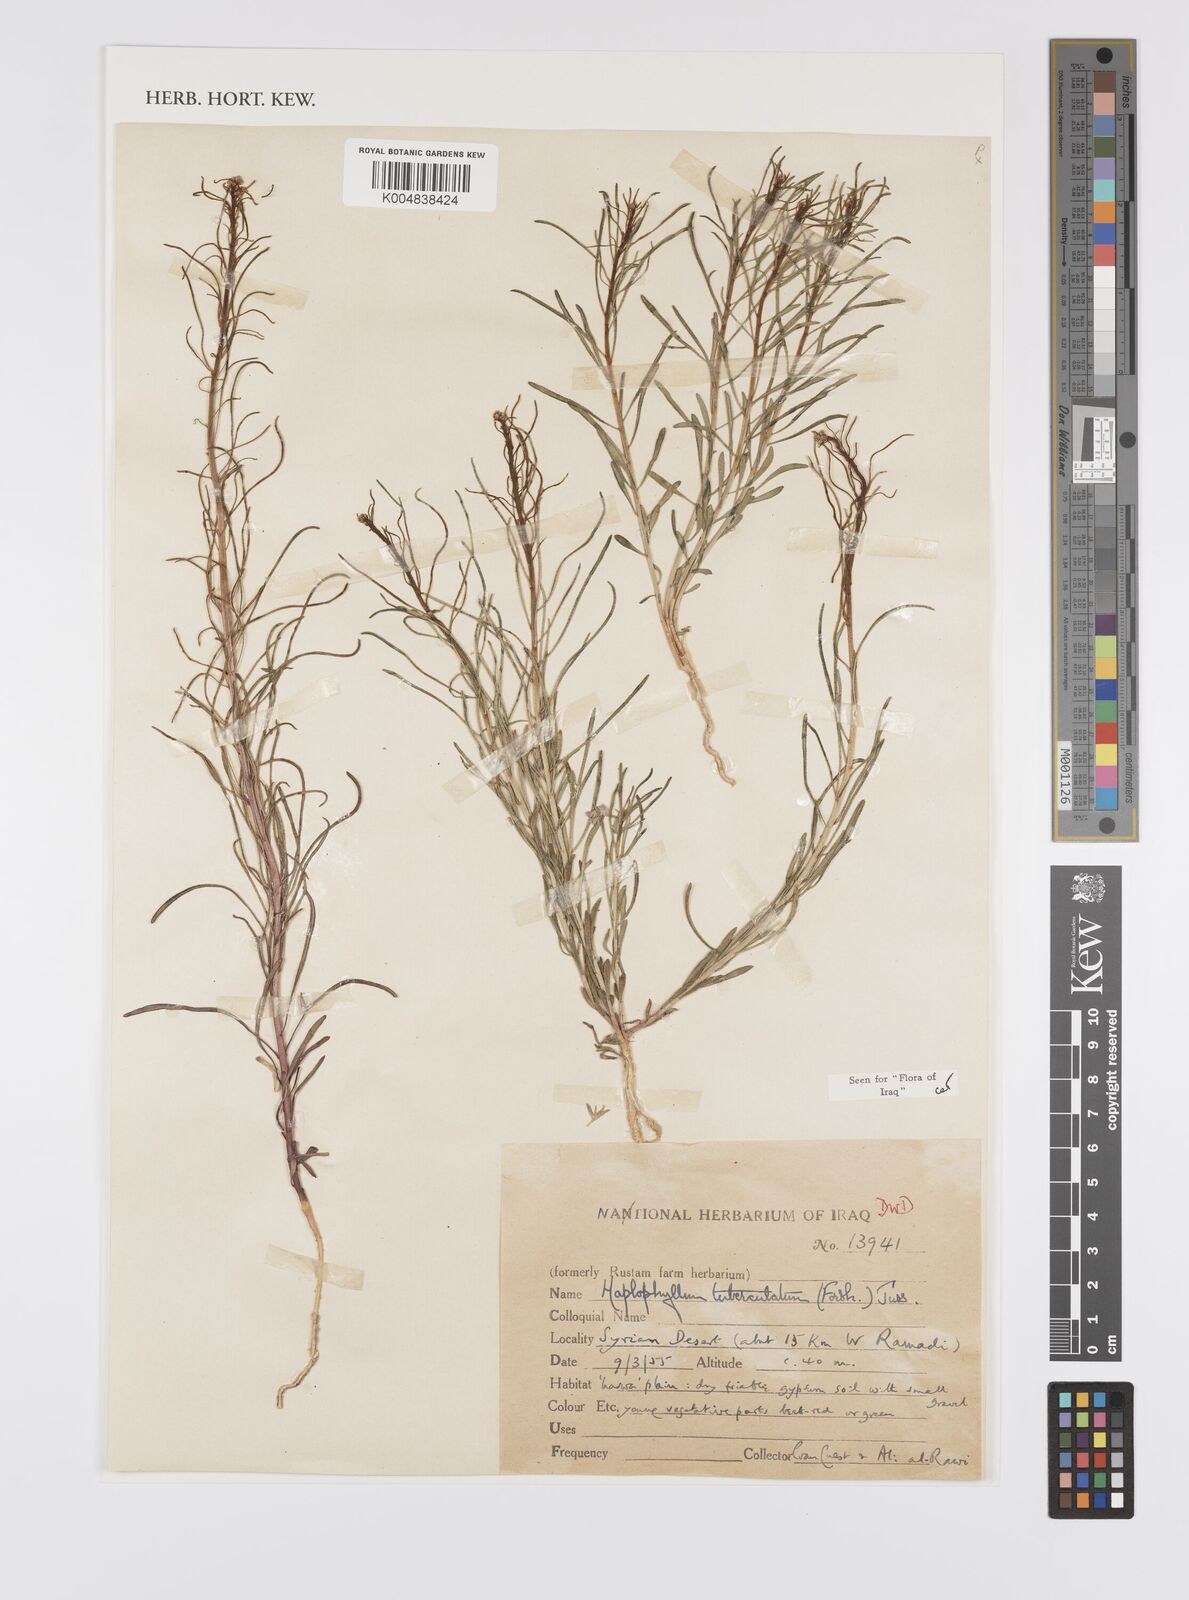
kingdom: Plantae
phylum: Tracheophyta
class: Magnoliopsida
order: Sapindales
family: Rutaceae
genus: Haplophyllum
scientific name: Haplophyllum tuberculatum
